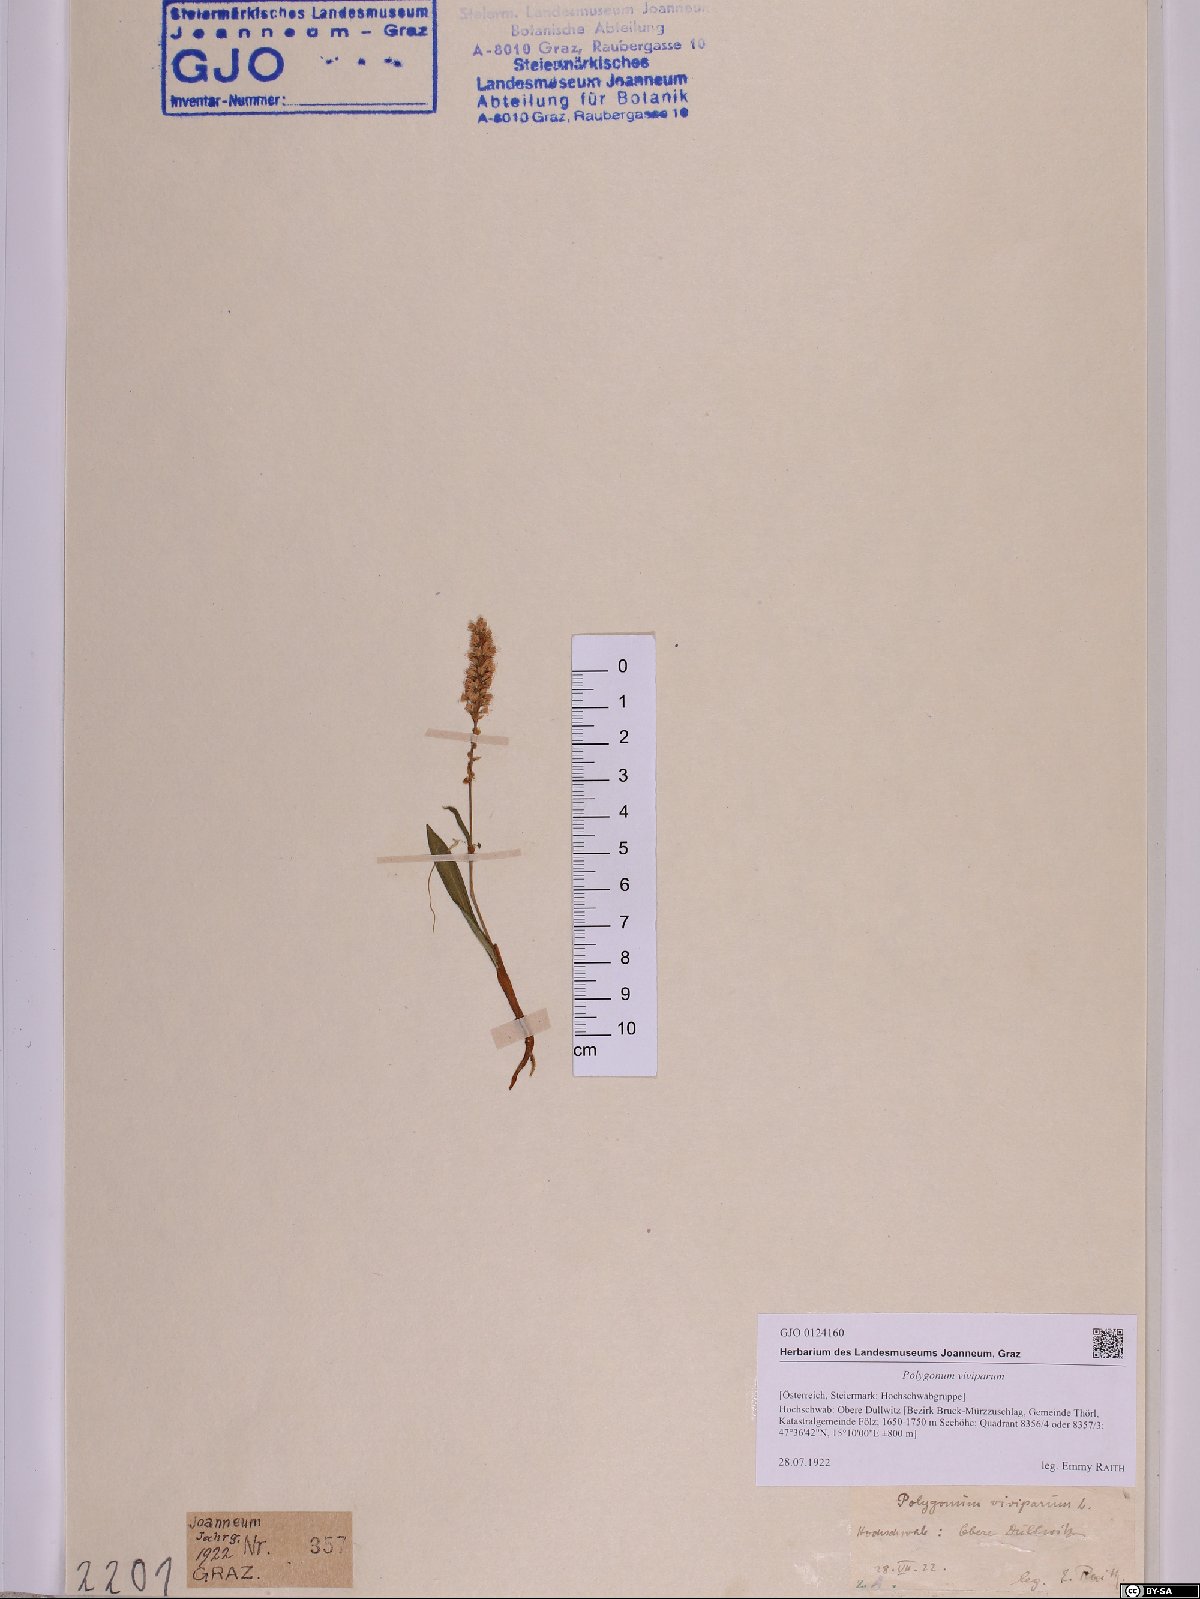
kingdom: Plantae
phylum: Tracheophyta
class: Magnoliopsida
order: Caryophyllales
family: Polygonaceae
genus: Bistorta
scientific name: Bistorta vivipara
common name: Alpine bistort
